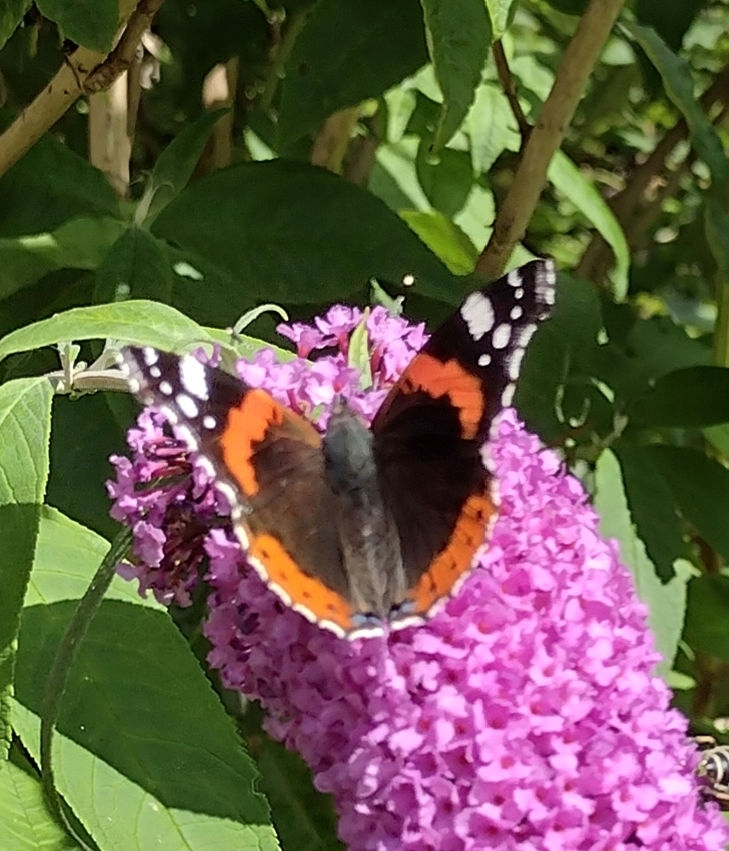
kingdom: Animalia
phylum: Arthropoda
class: Insecta
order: Lepidoptera
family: Nymphalidae
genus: Vanessa
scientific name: Vanessa atalanta
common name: Admiral
